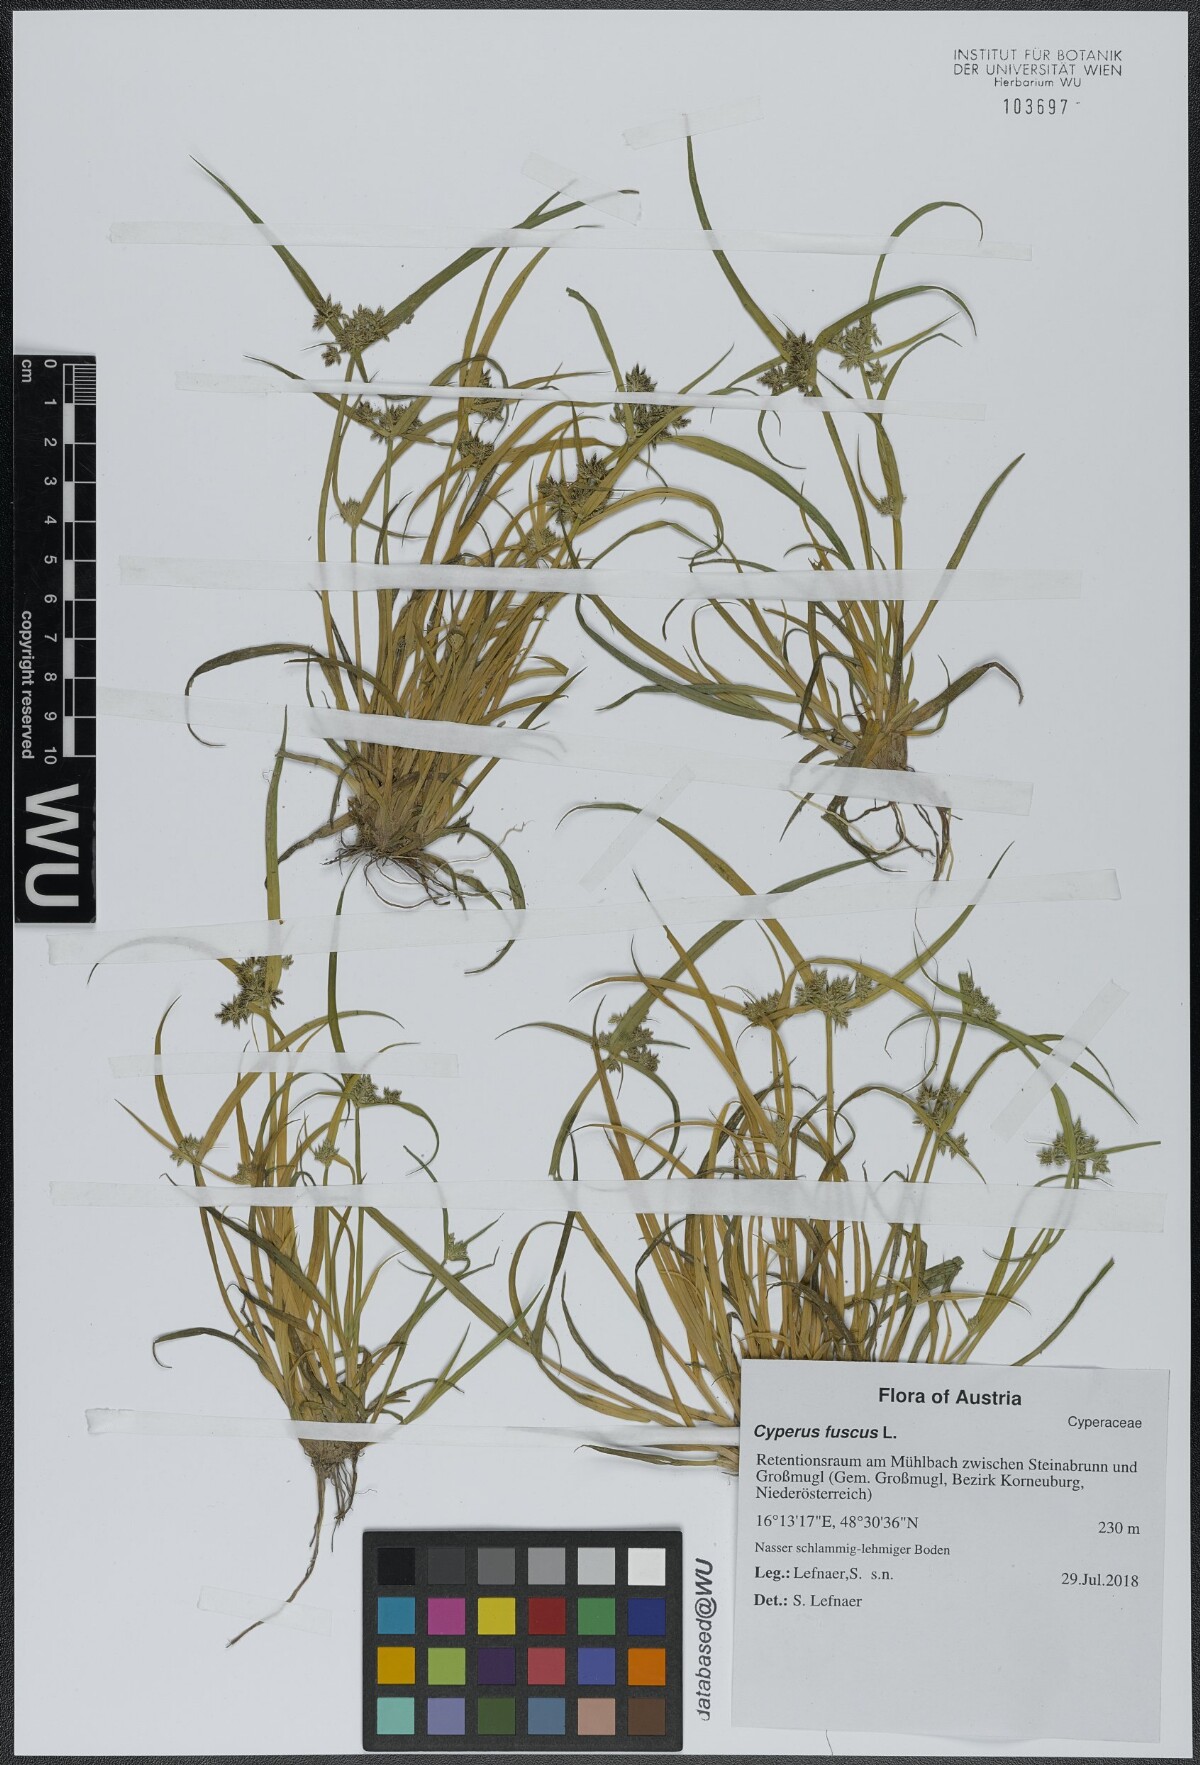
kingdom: Plantae
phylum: Tracheophyta
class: Liliopsida
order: Poales
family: Cyperaceae
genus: Cyperus
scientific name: Cyperus fuscus
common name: Brown galingale
